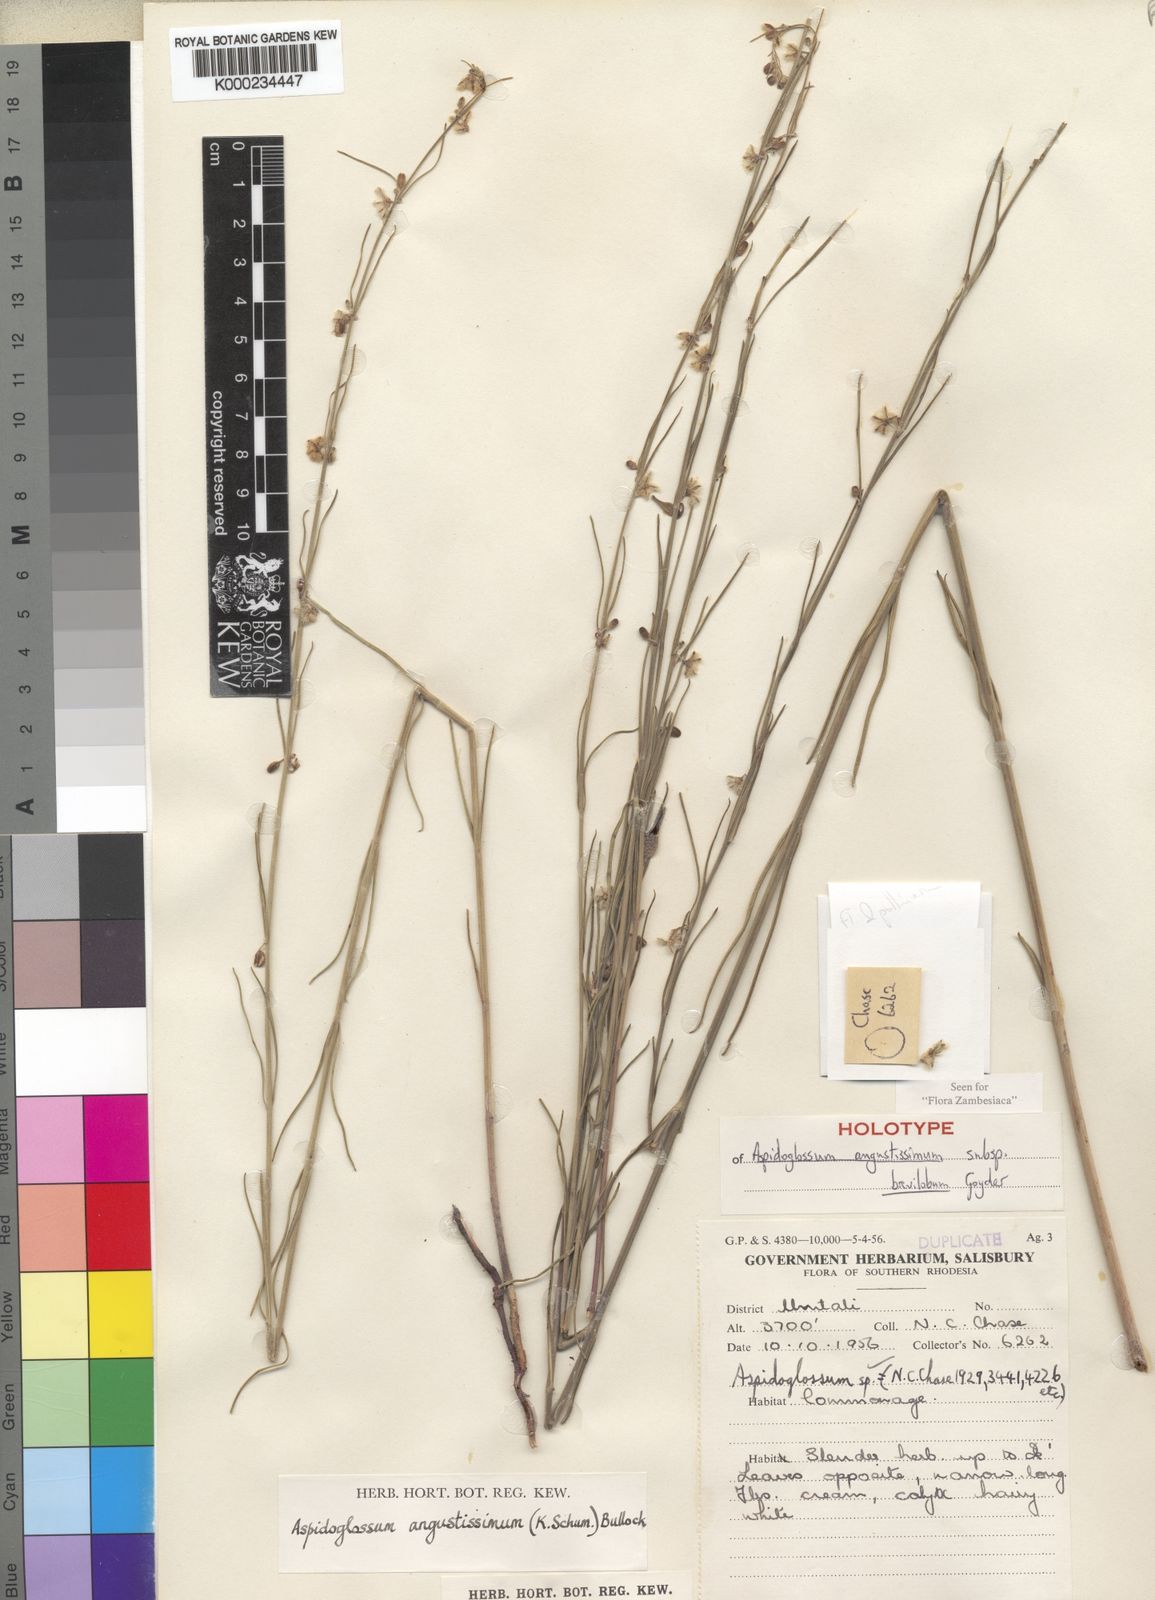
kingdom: Plantae
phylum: Tracheophyta
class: Magnoliopsida
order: Gentianales
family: Apocynaceae
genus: Aspidoglossum
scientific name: Aspidoglossum
